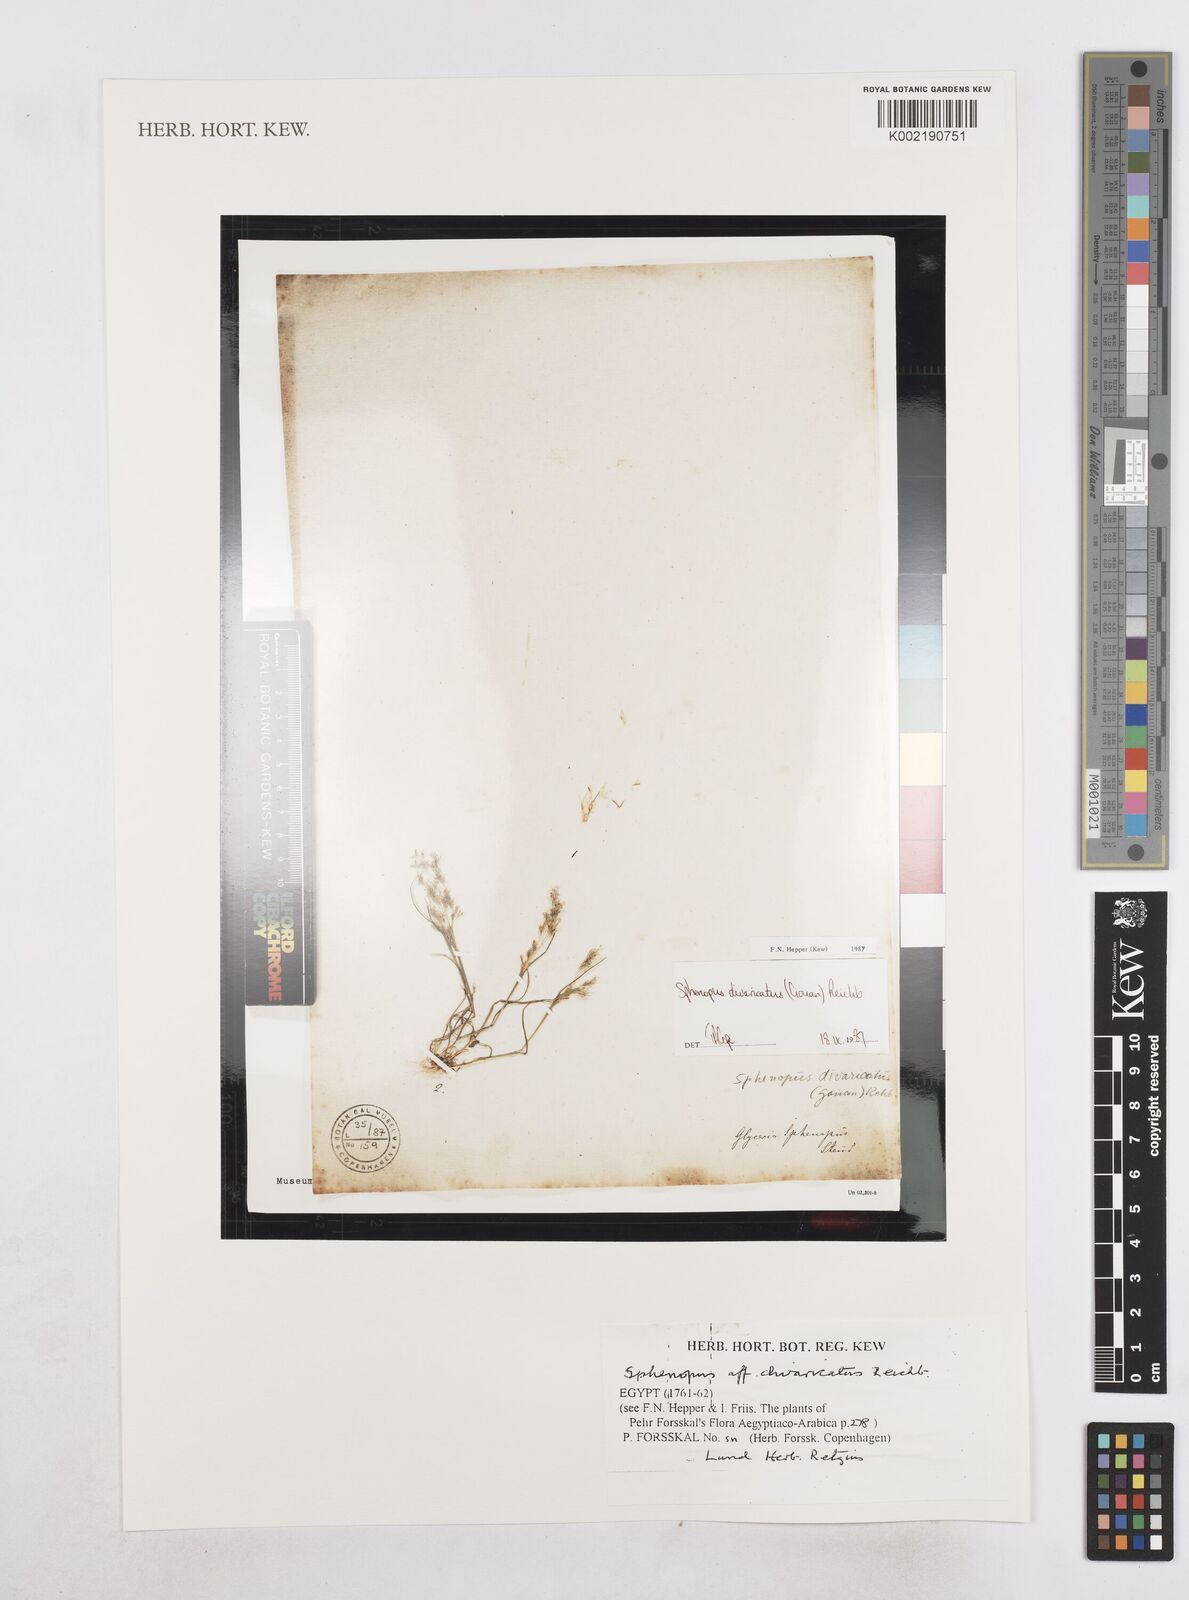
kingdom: Plantae
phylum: Tracheophyta
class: Liliopsida
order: Poales
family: Poaceae
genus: Sphenopus
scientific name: Sphenopus divaricatus
